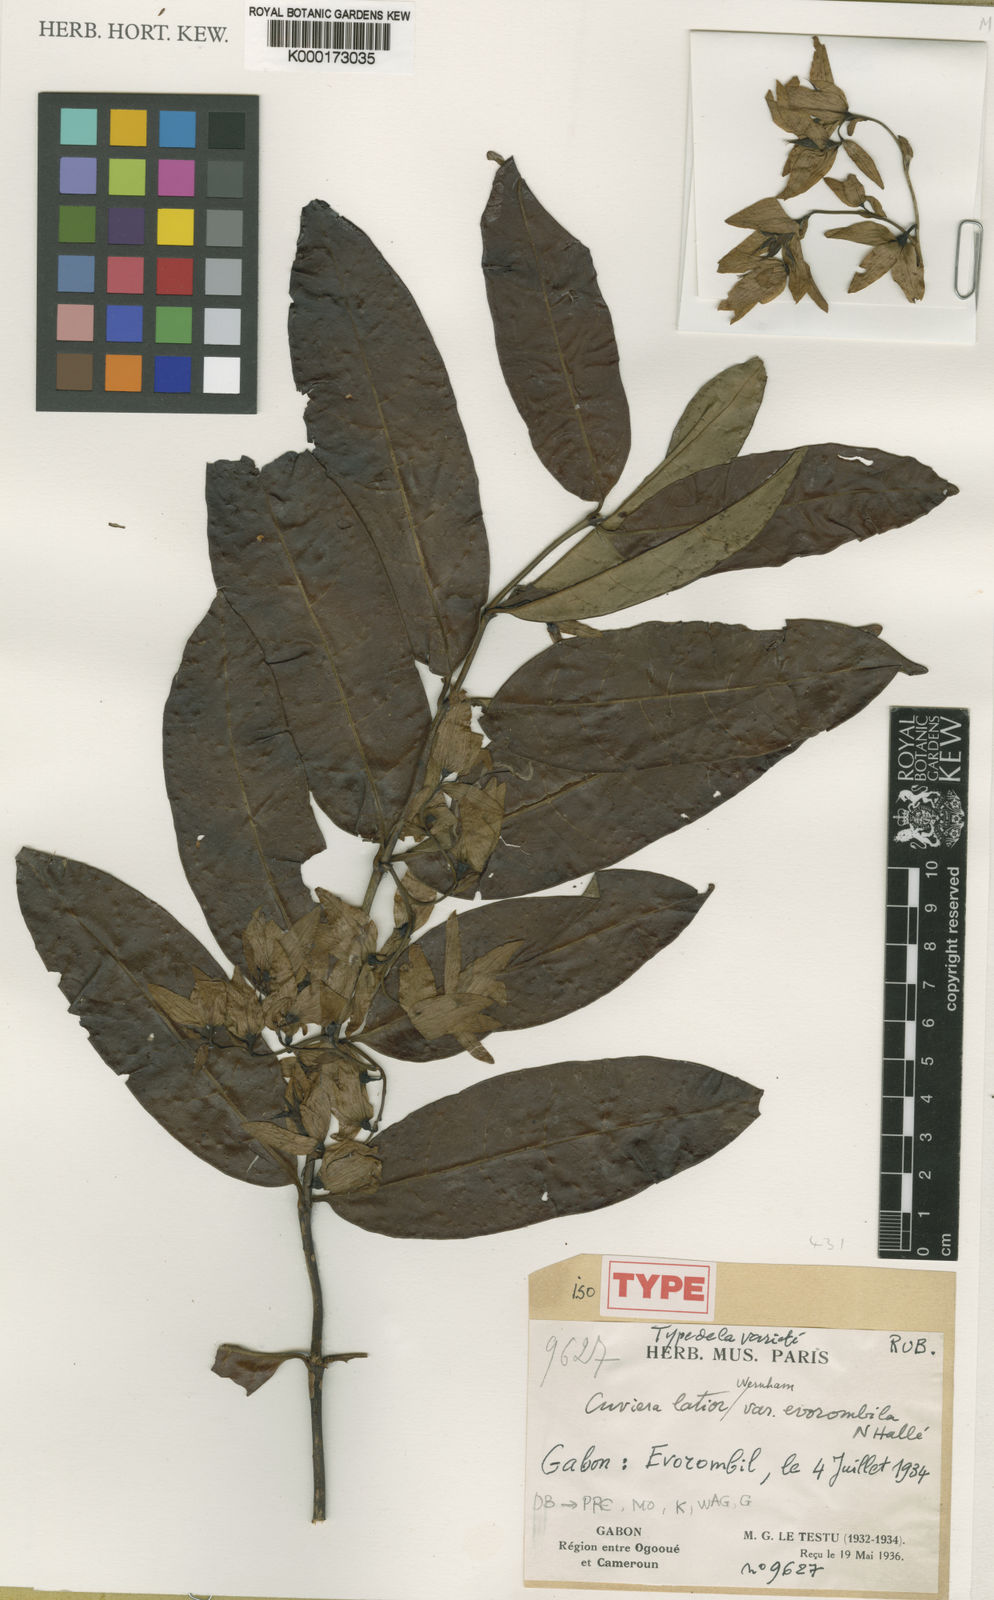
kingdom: Plantae
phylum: Tracheophyta
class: Magnoliopsida
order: Gentianales
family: Rubiaceae
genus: Cuviera
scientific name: Cuviera angolensis
